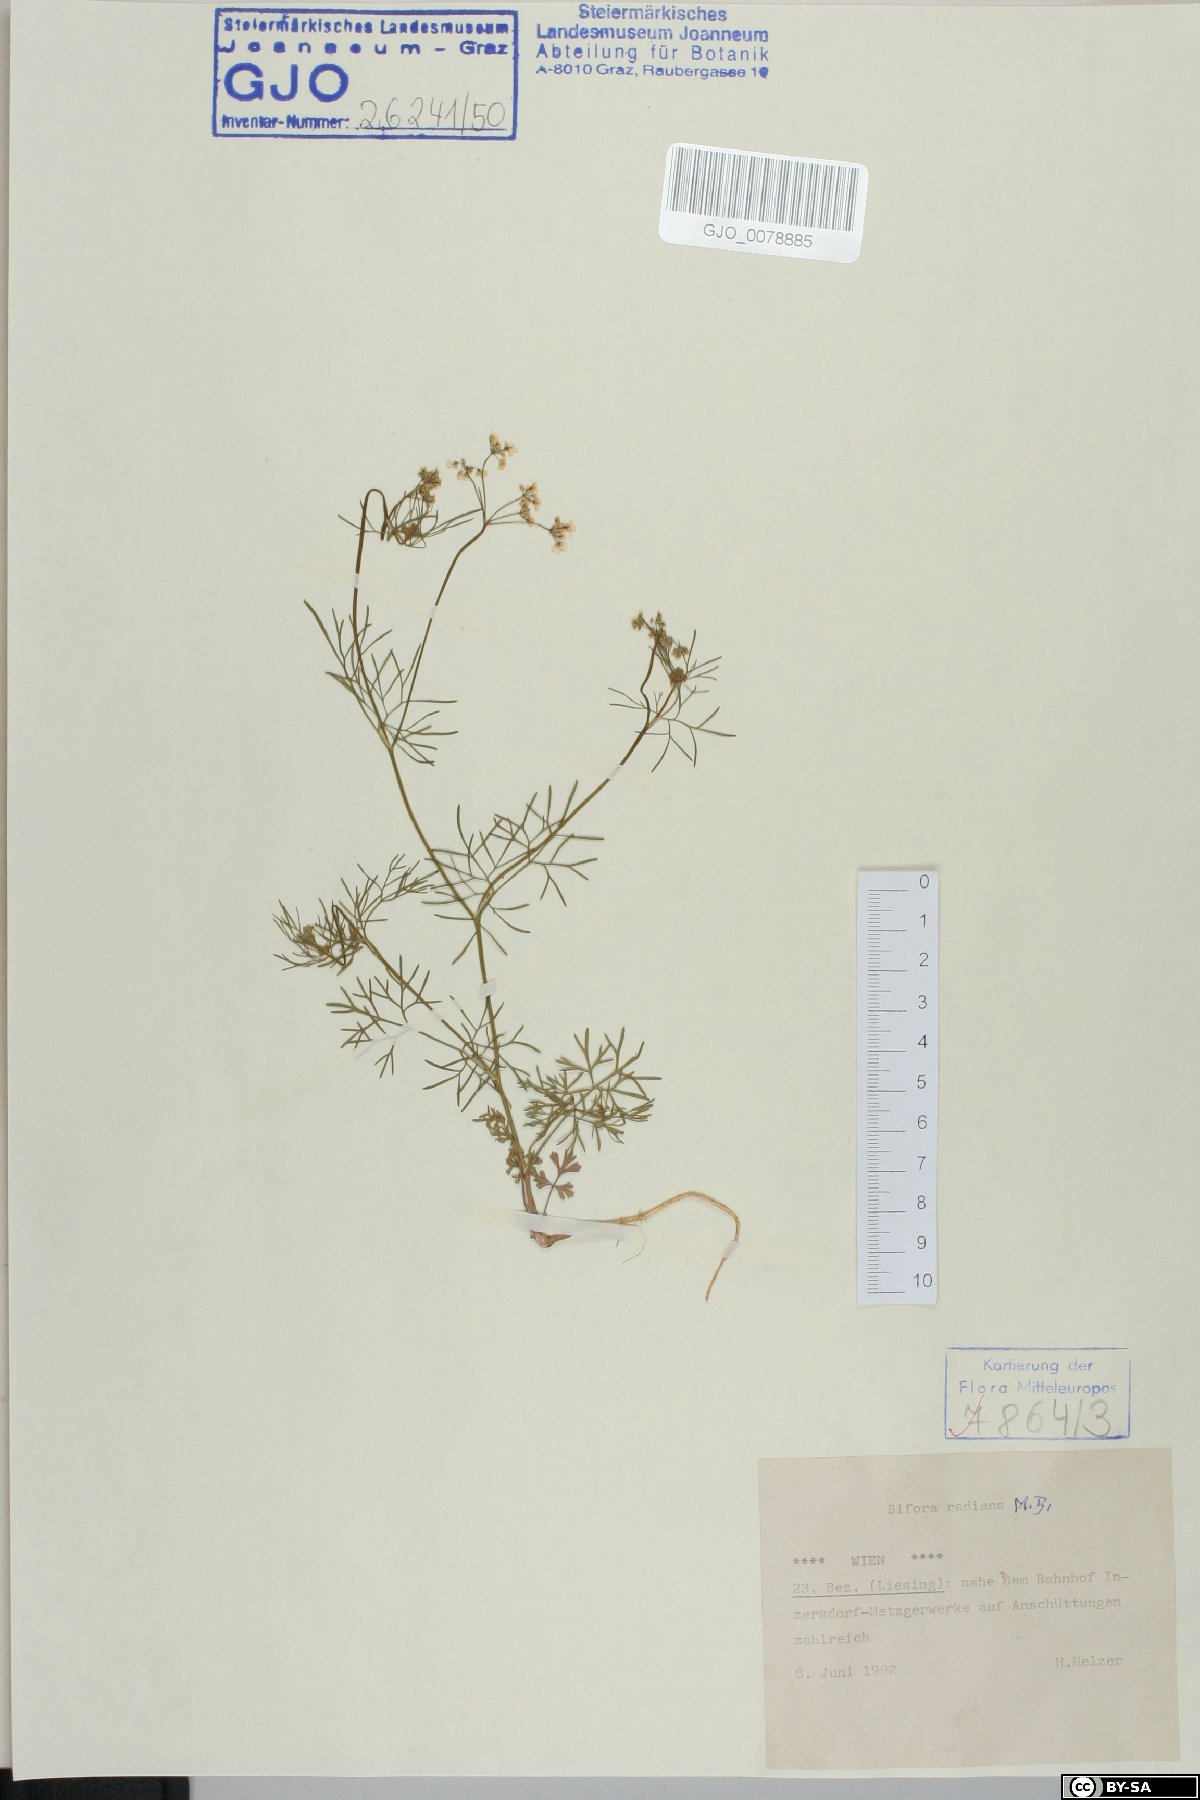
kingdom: Plantae
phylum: Tracheophyta
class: Magnoliopsida
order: Apiales
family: Apiaceae
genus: Bifora
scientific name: Bifora radians
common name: Wild bishop
